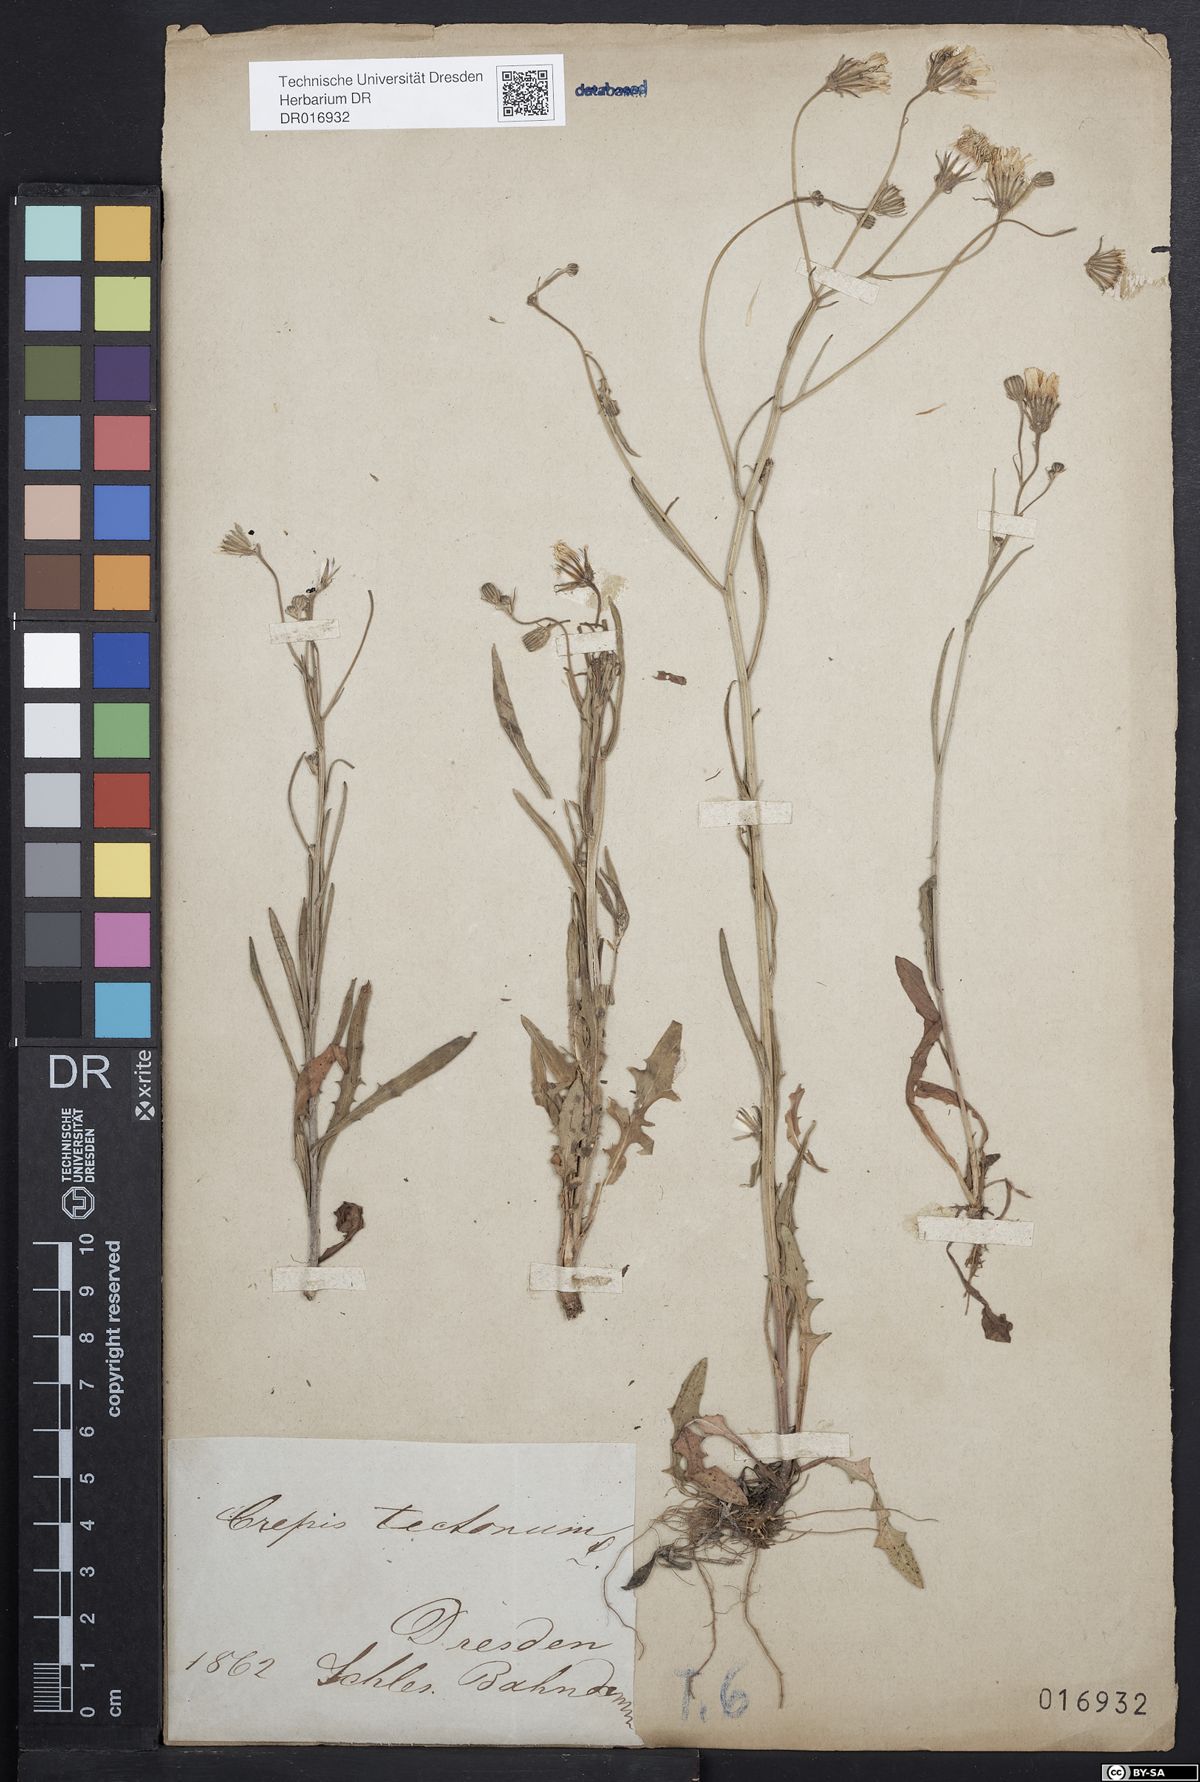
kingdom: Plantae
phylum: Tracheophyta
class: Magnoliopsida
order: Asterales
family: Asteraceae
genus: Crepis
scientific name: Crepis tectorum
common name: Narrow-leaved hawk's-beard
